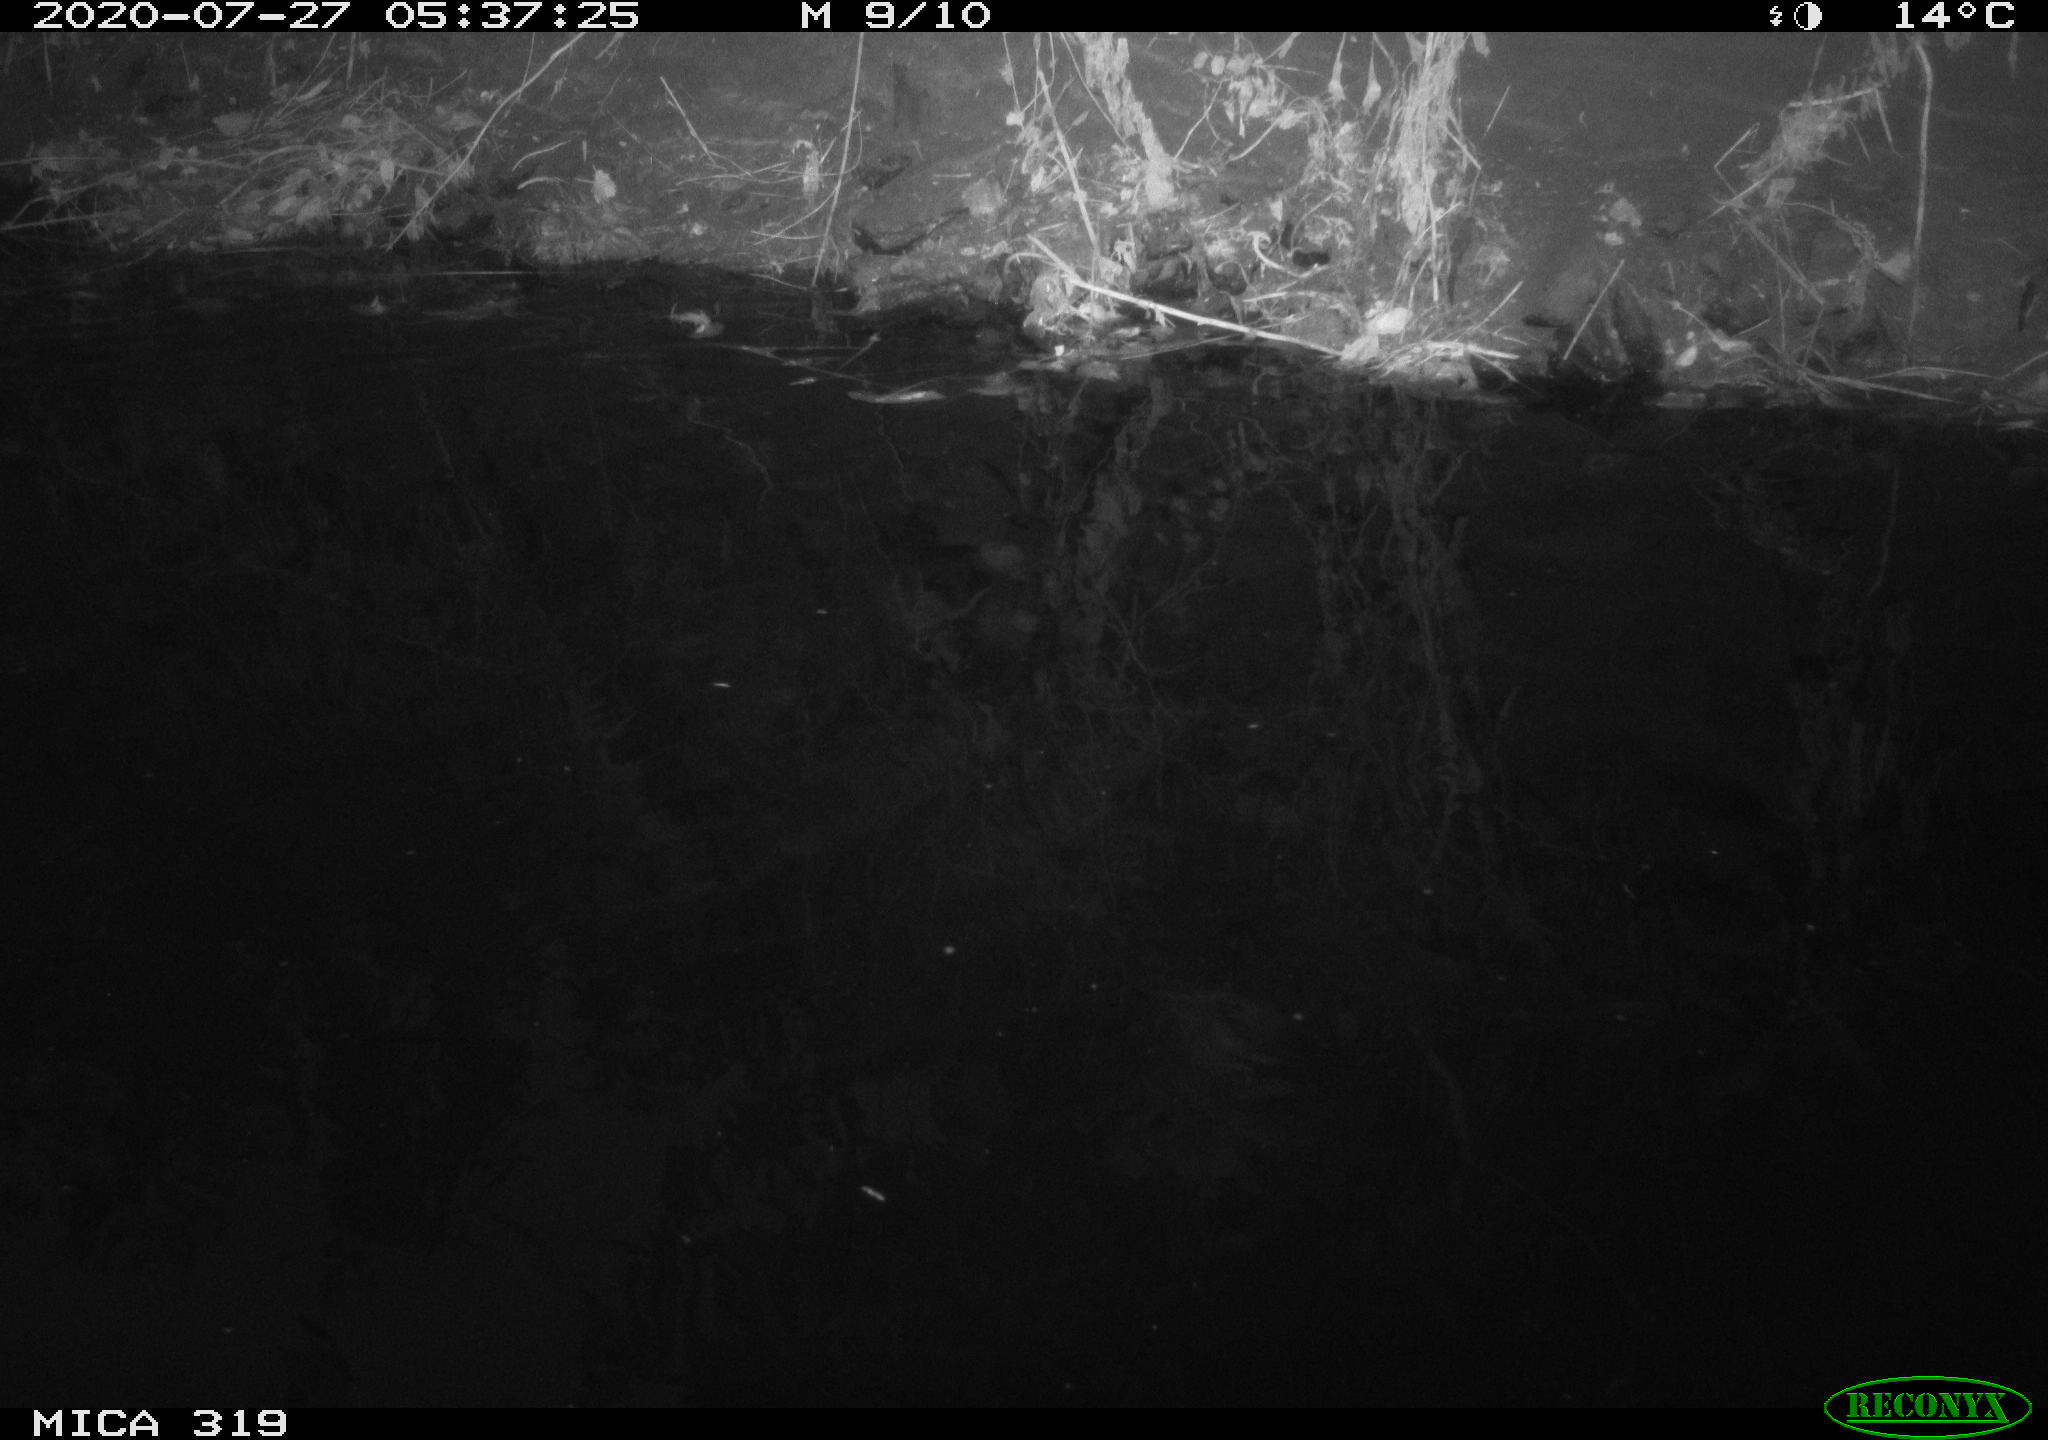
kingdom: Animalia
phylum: Chordata
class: Aves
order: Anseriformes
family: Anatidae
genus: Anas
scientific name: Anas platyrhynchos
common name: Mallard
